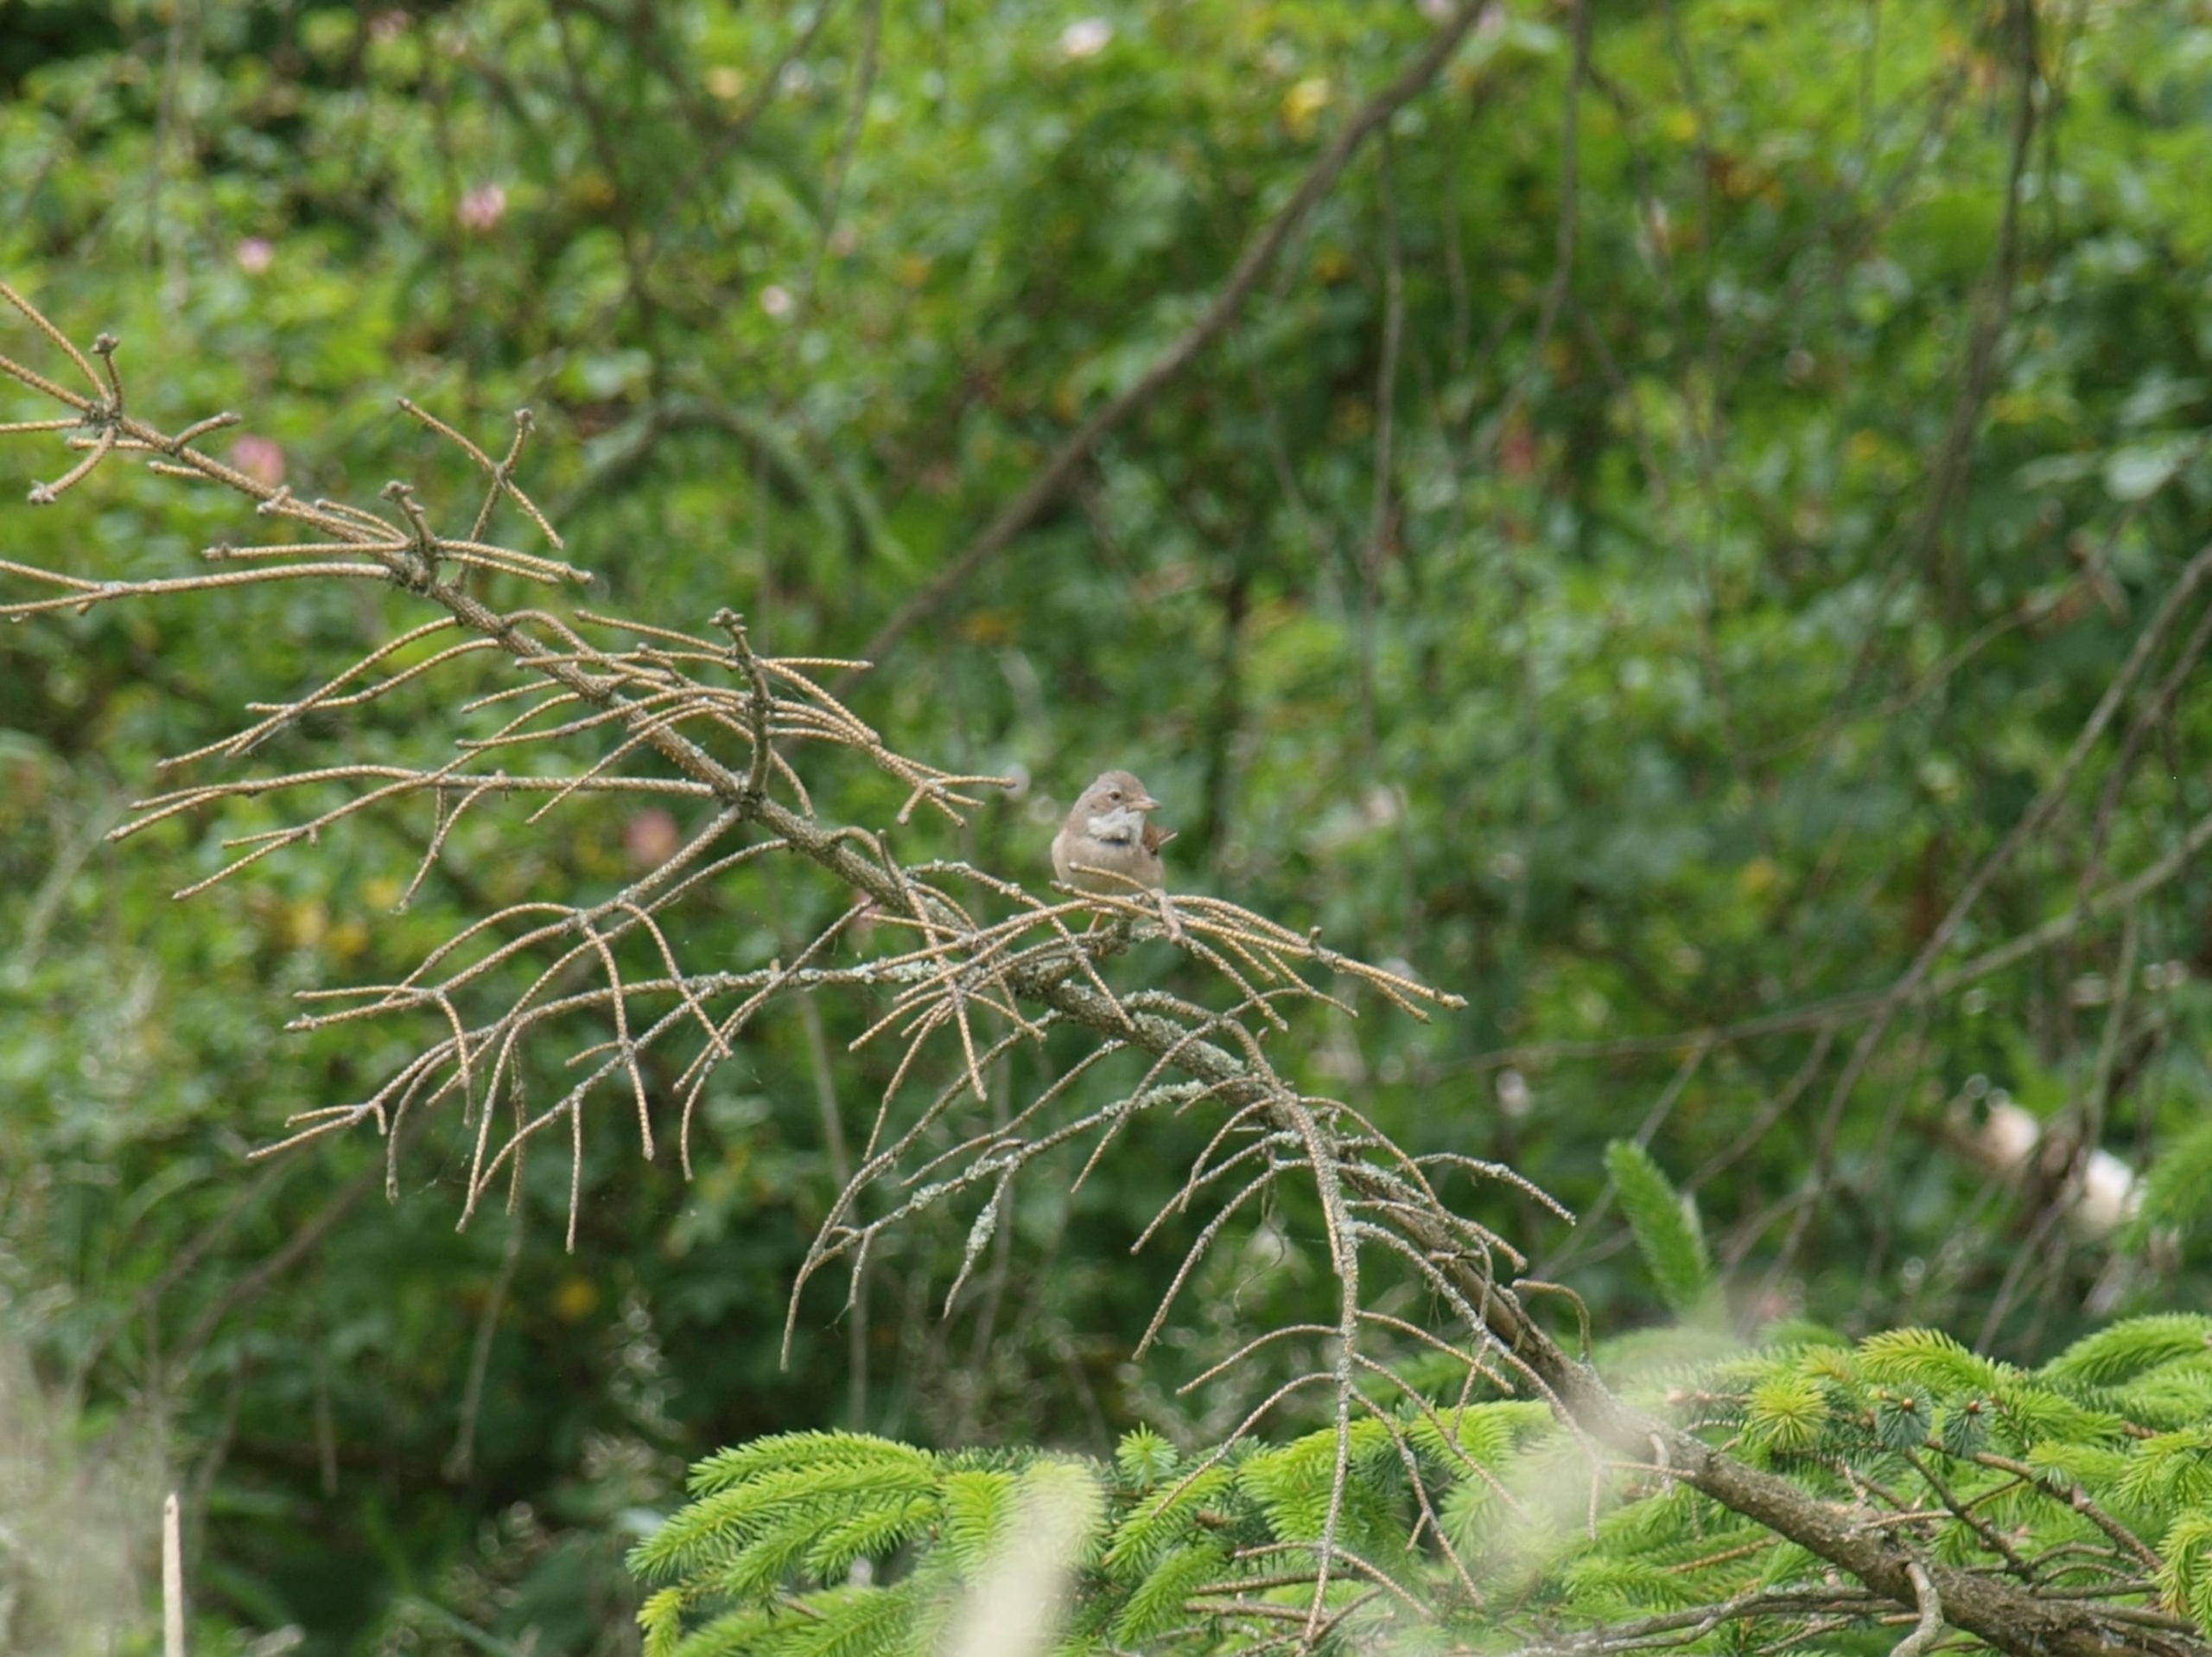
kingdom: Animalia
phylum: Chordata
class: Aves
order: Passeriformes
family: Sylviidae
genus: Sylvia
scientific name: Sylvia communis
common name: Tornsanger
